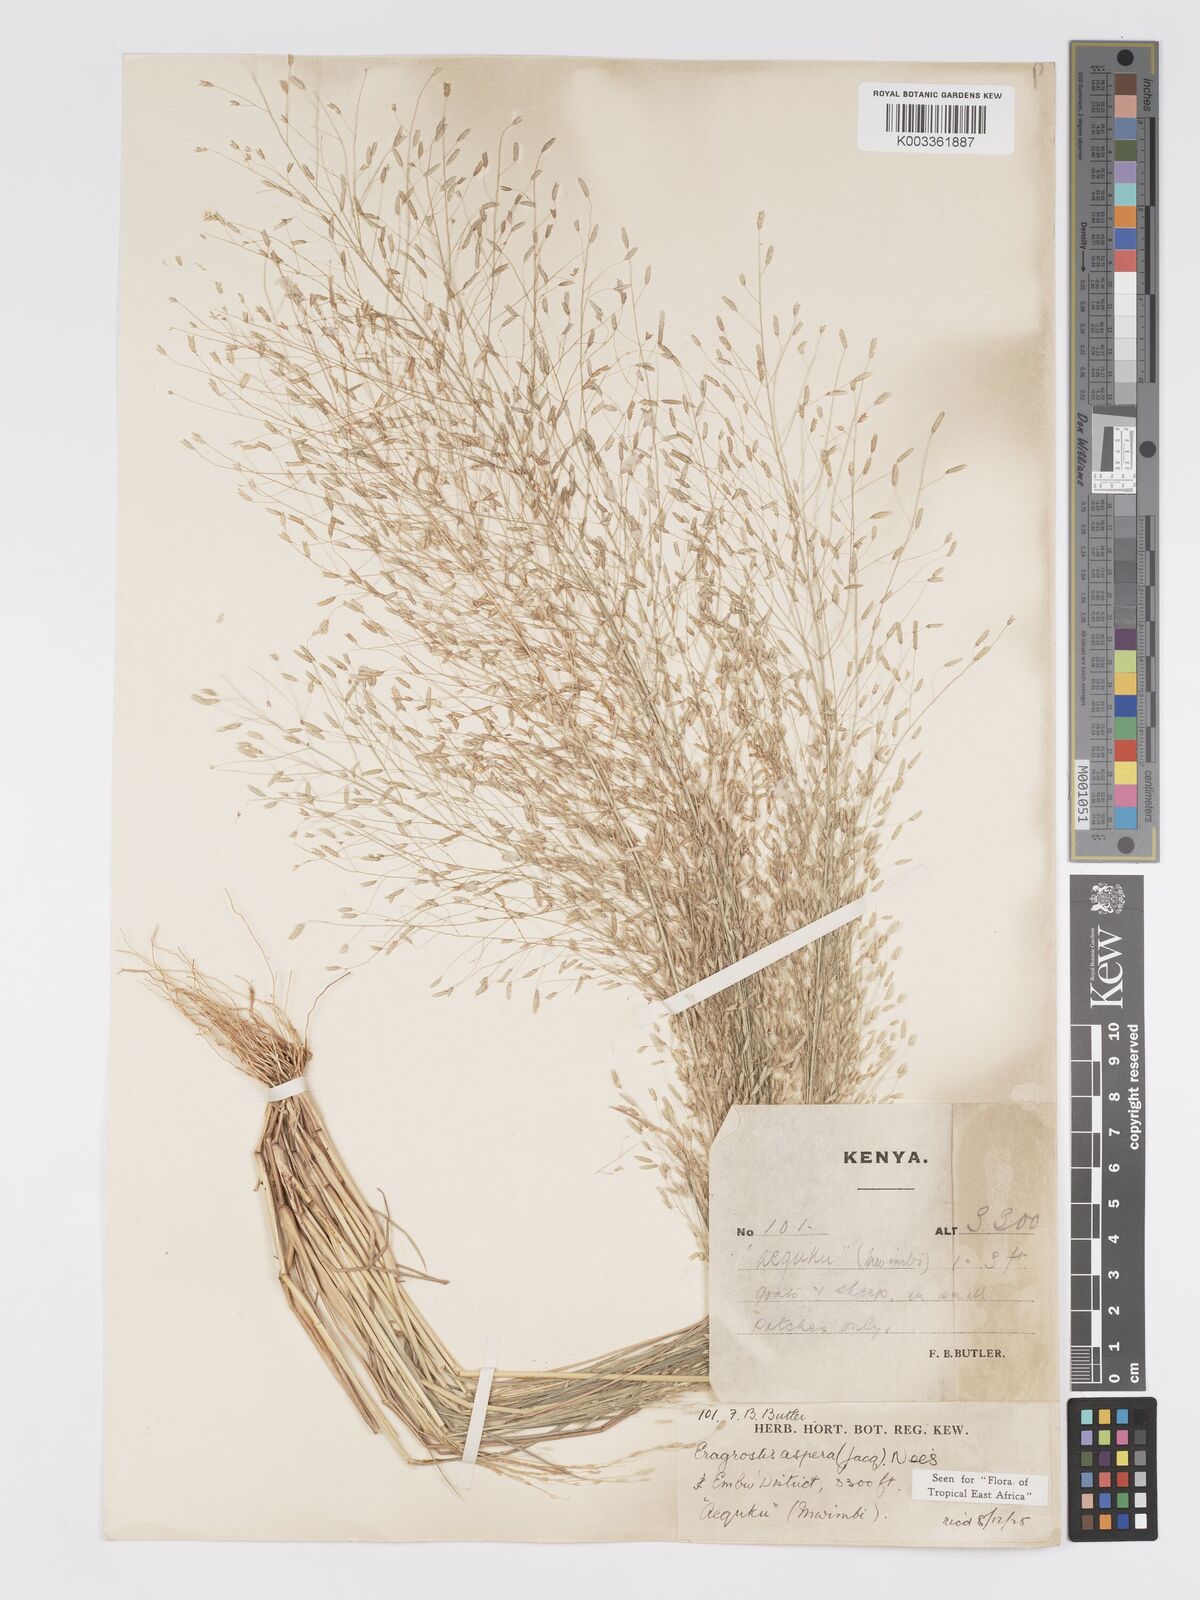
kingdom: Plantae
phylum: Tracheophyta
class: Liliopsida
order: Poales
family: Poaceae
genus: Eragrostis
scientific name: Eragrostis aspera
